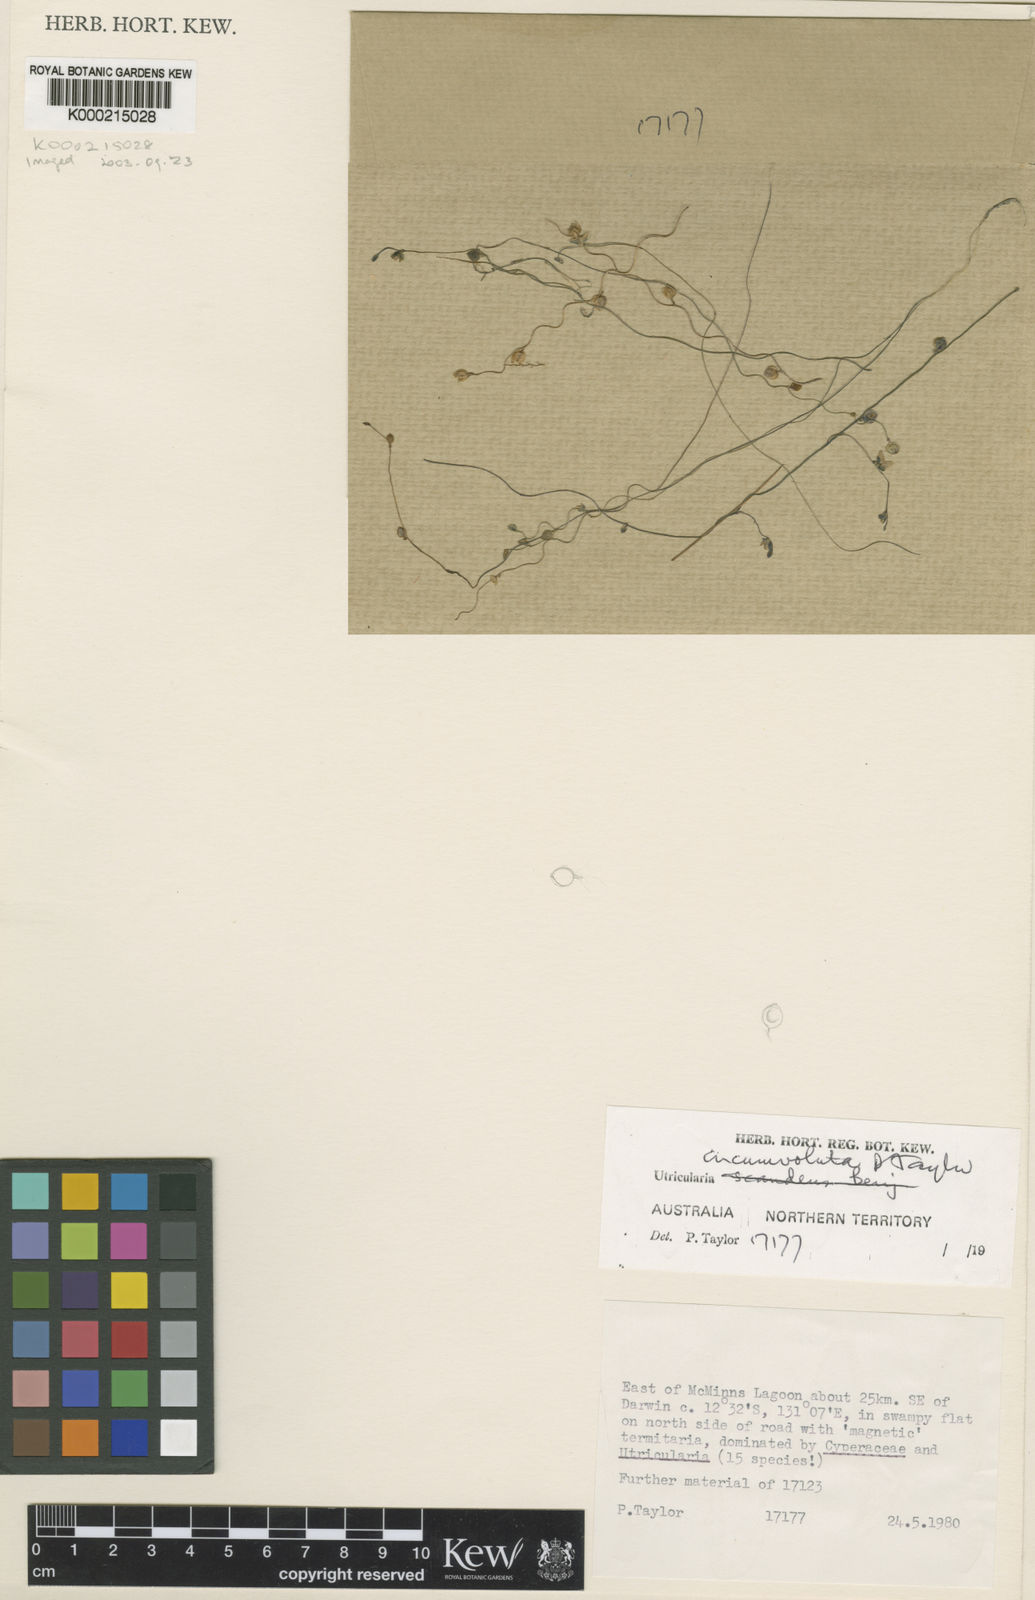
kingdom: Plantae
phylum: Tracheophyta
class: Magnoliopsida
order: Lamiales
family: Lentibulariaceae
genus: Utricularia
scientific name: Utricularia circumvoluta
